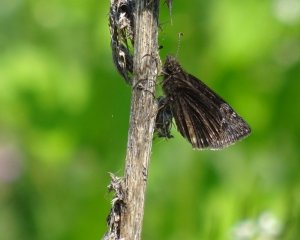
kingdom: Animalia
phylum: Arthropoda
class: Insecta
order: Lepidoptera
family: Hesperiidae
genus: Erynnis
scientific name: Erynnis
